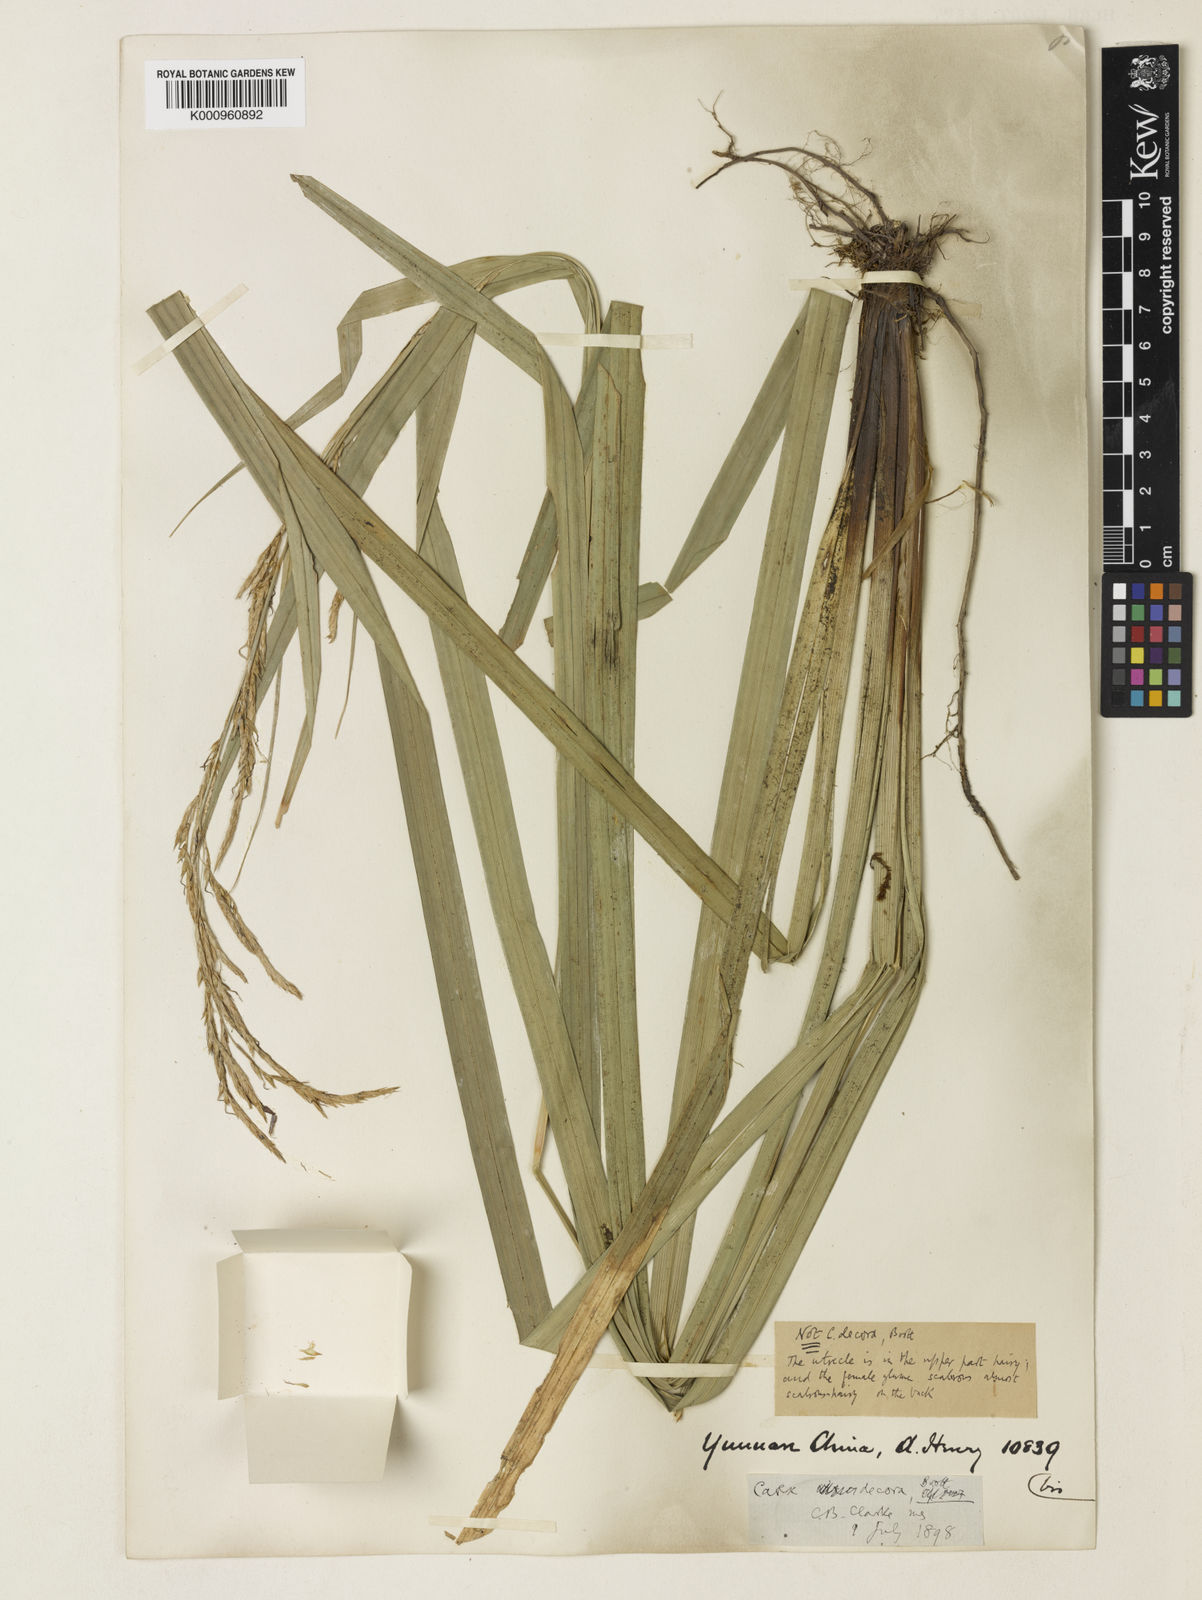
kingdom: Plantae
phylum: Tracheophyta
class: Liliopsida
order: Poales
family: Cyperaceae
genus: Carex
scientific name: Carex perakensis
